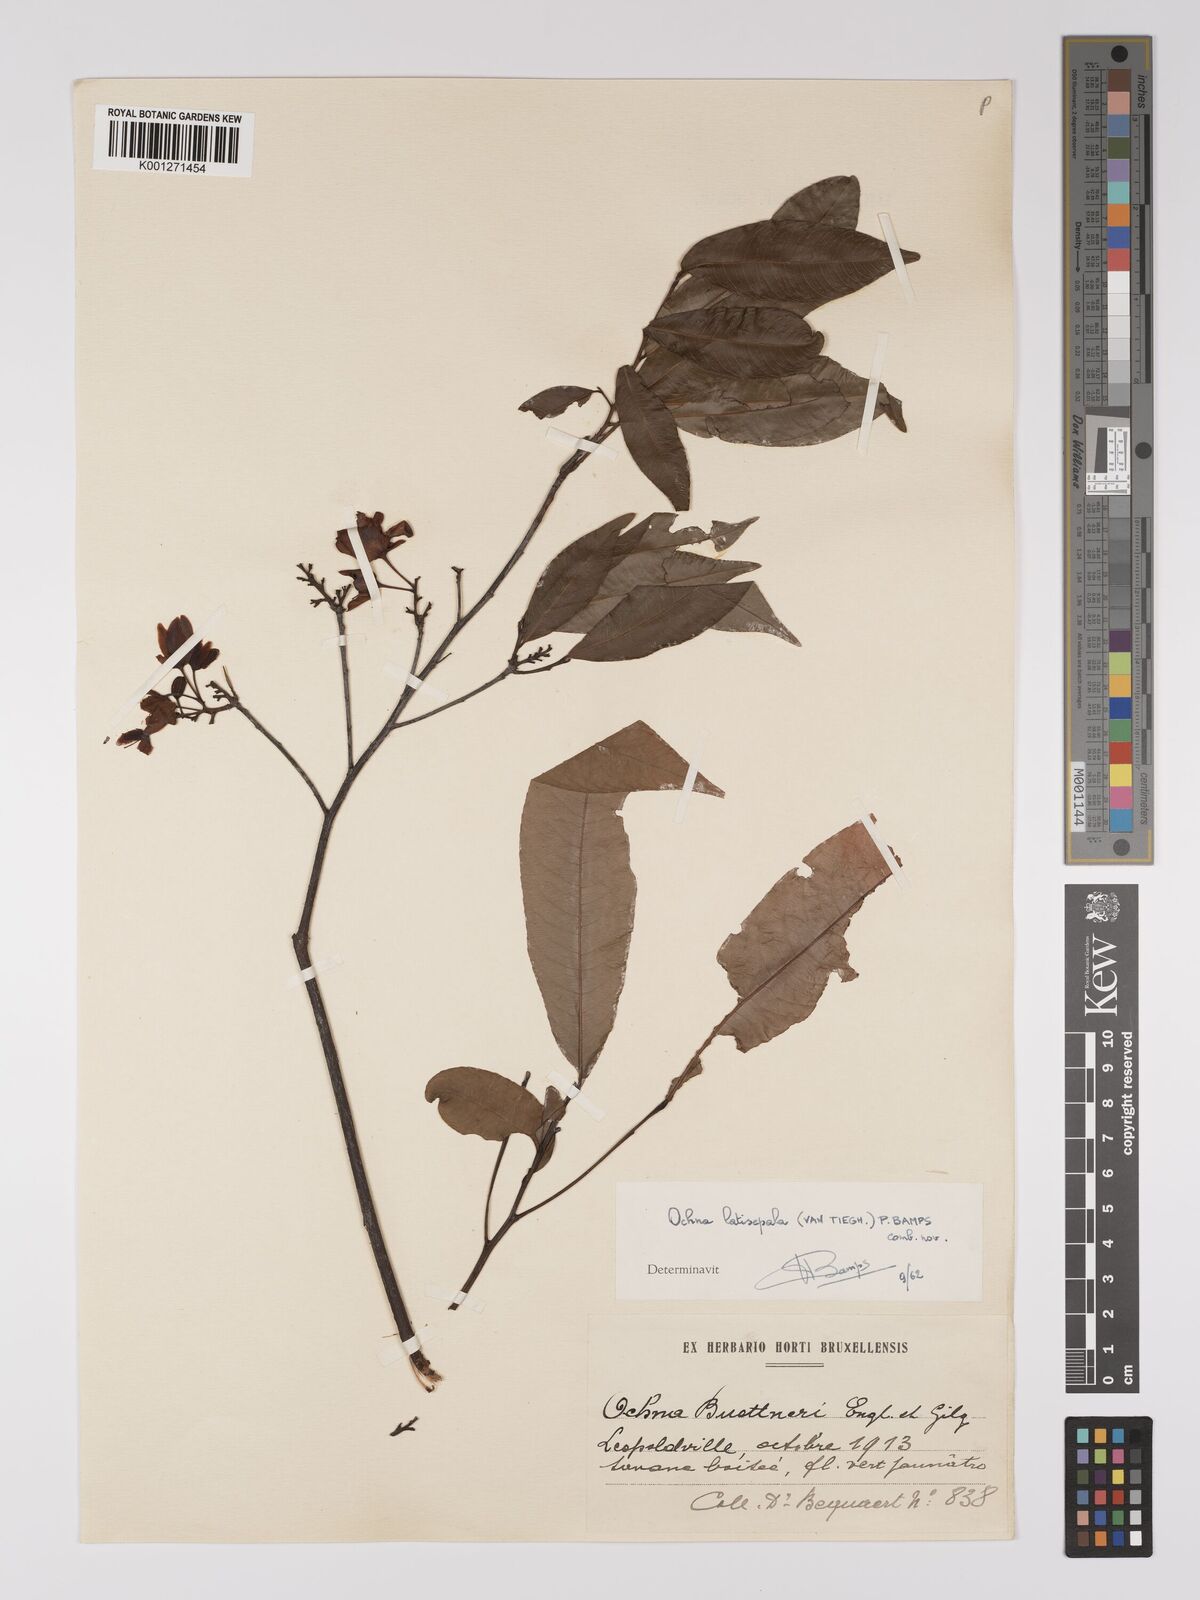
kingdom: Plantae
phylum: Tracheophyta
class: Magnoliopsida
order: Malpighiales
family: Ochnaceae
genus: Ochna
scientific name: Ochna latisepala
